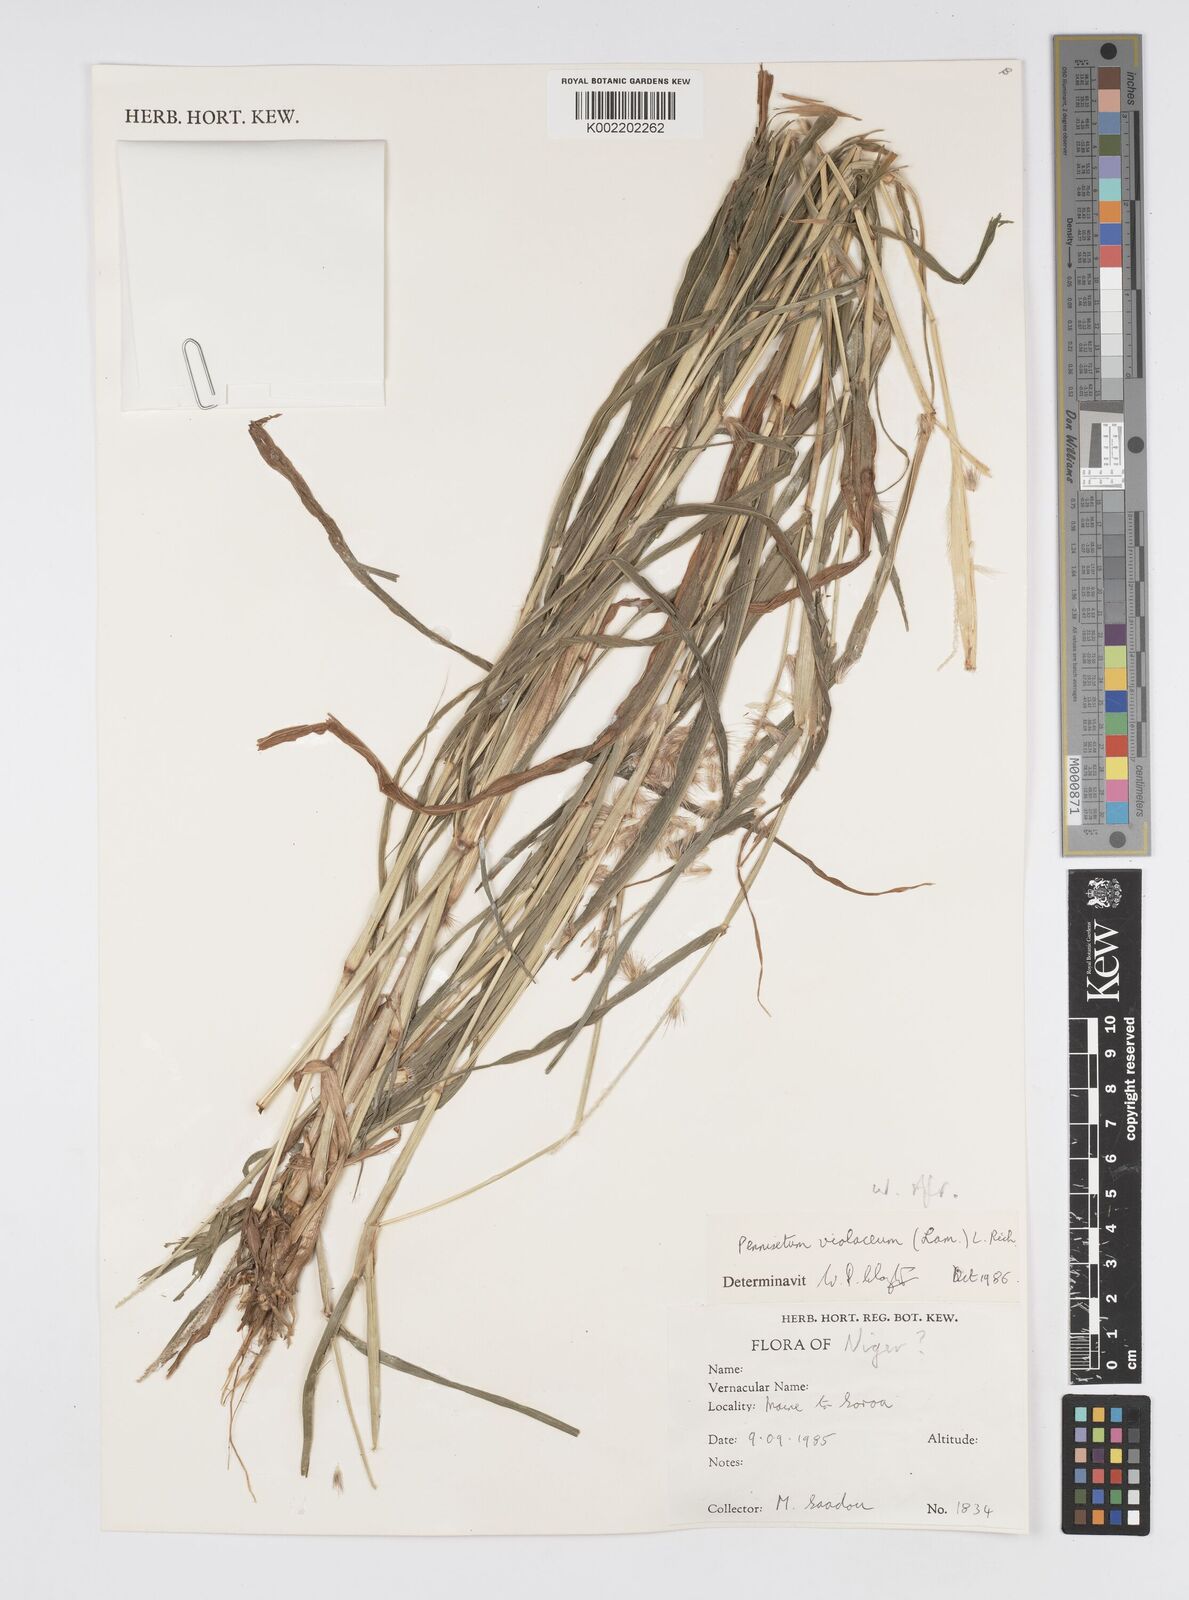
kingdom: Plantae
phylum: Tracheophyta
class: Liliopsida
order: Poales
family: Poaceae
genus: Cenchrus
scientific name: Cenchrus violaceus
